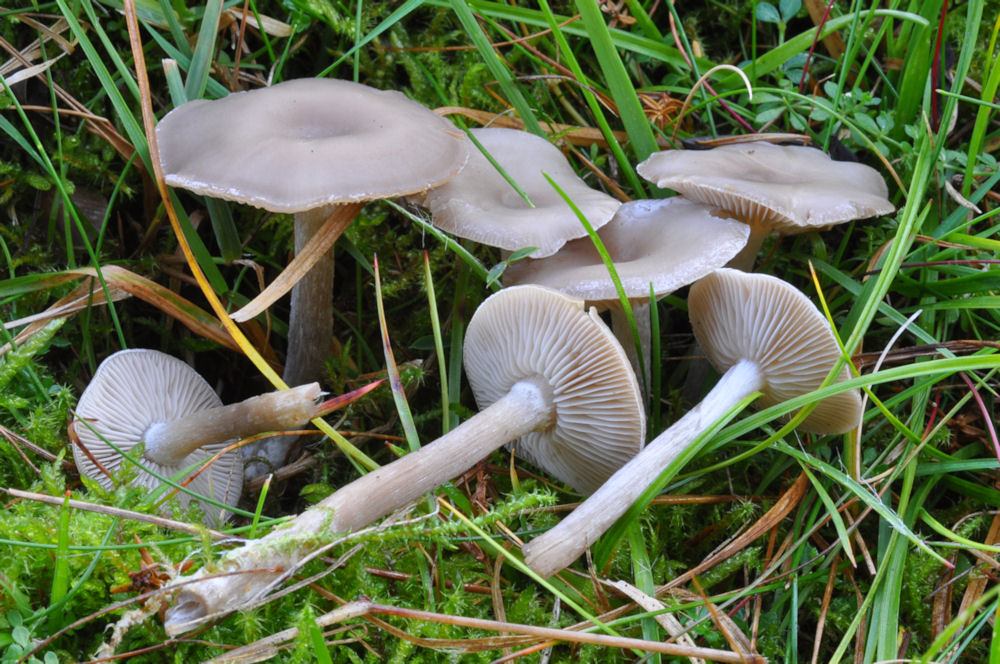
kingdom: Fungi
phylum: Basidiomycota
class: Agaricomycetes
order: Agaricales
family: Tricholomataceae
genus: Clitocybe
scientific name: Clitocybe metachroa
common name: grå tragthat
